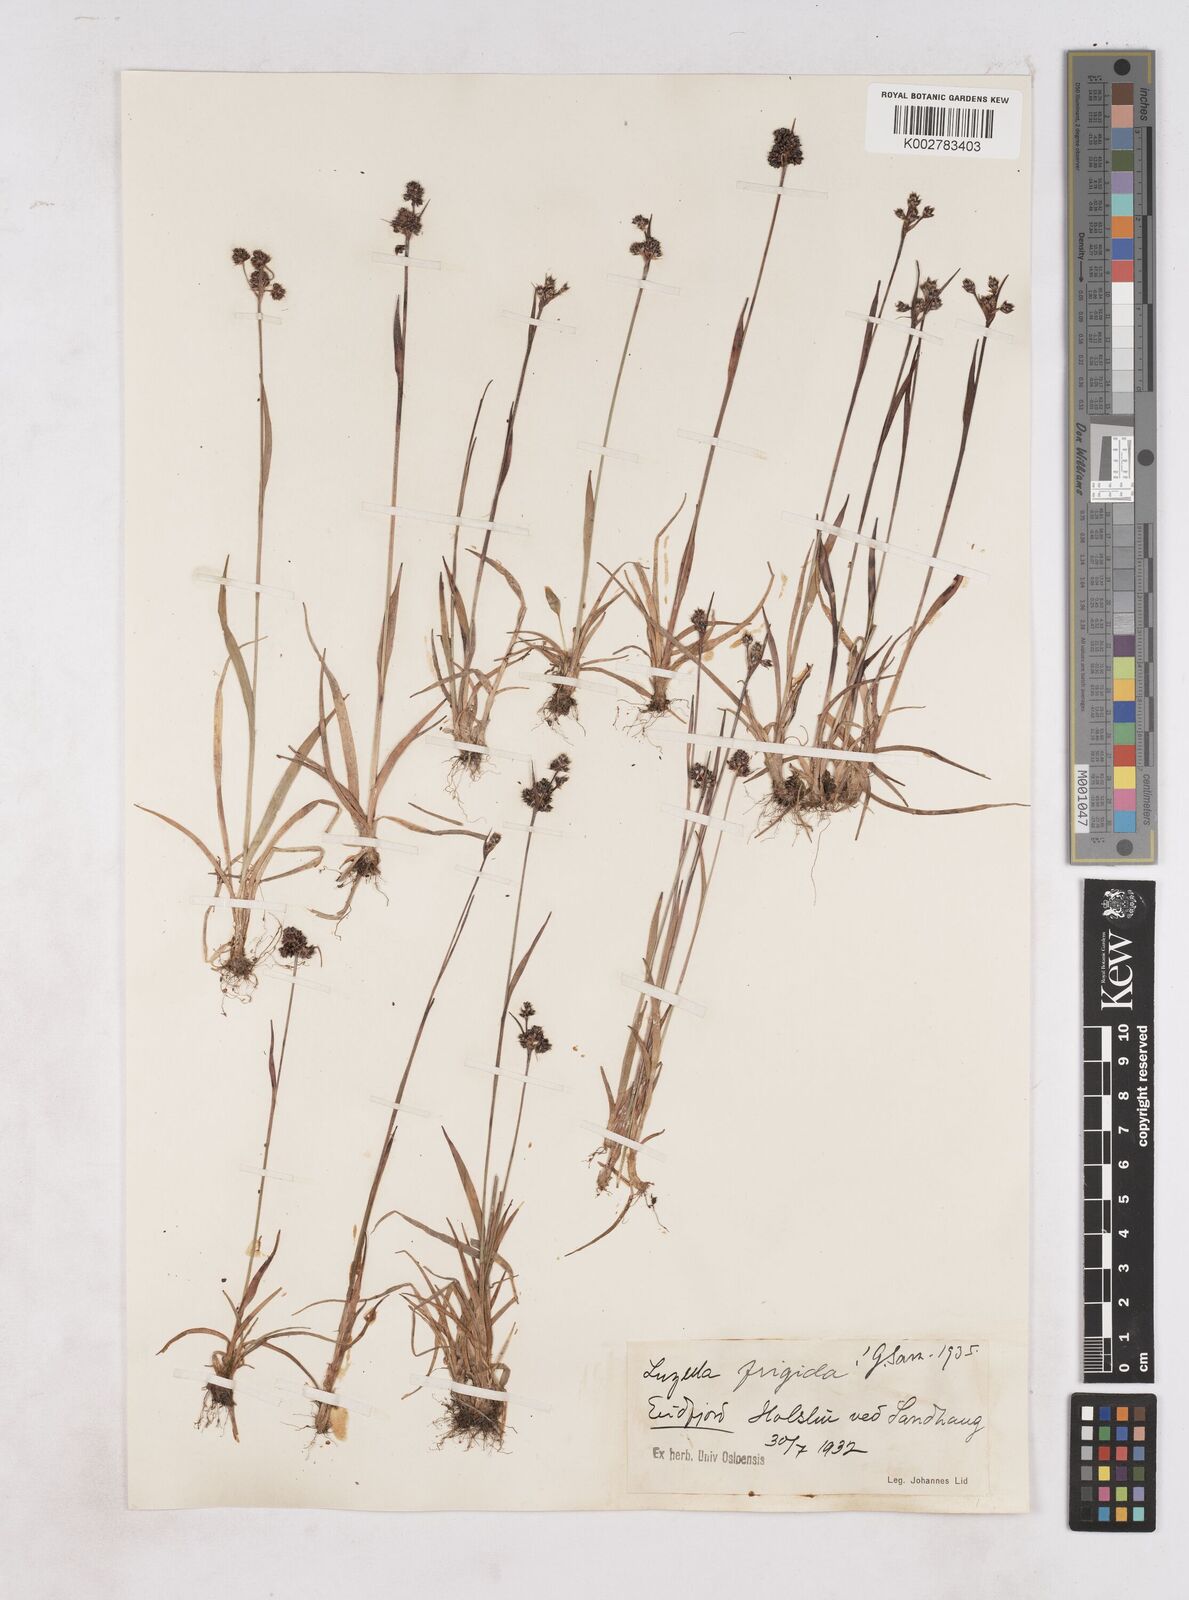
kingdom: Plantae
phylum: Tracheophyta
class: Liliopsida
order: Poales
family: Juncaceae
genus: Luzula
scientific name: Luzula multiflora
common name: Heath wood-rush
